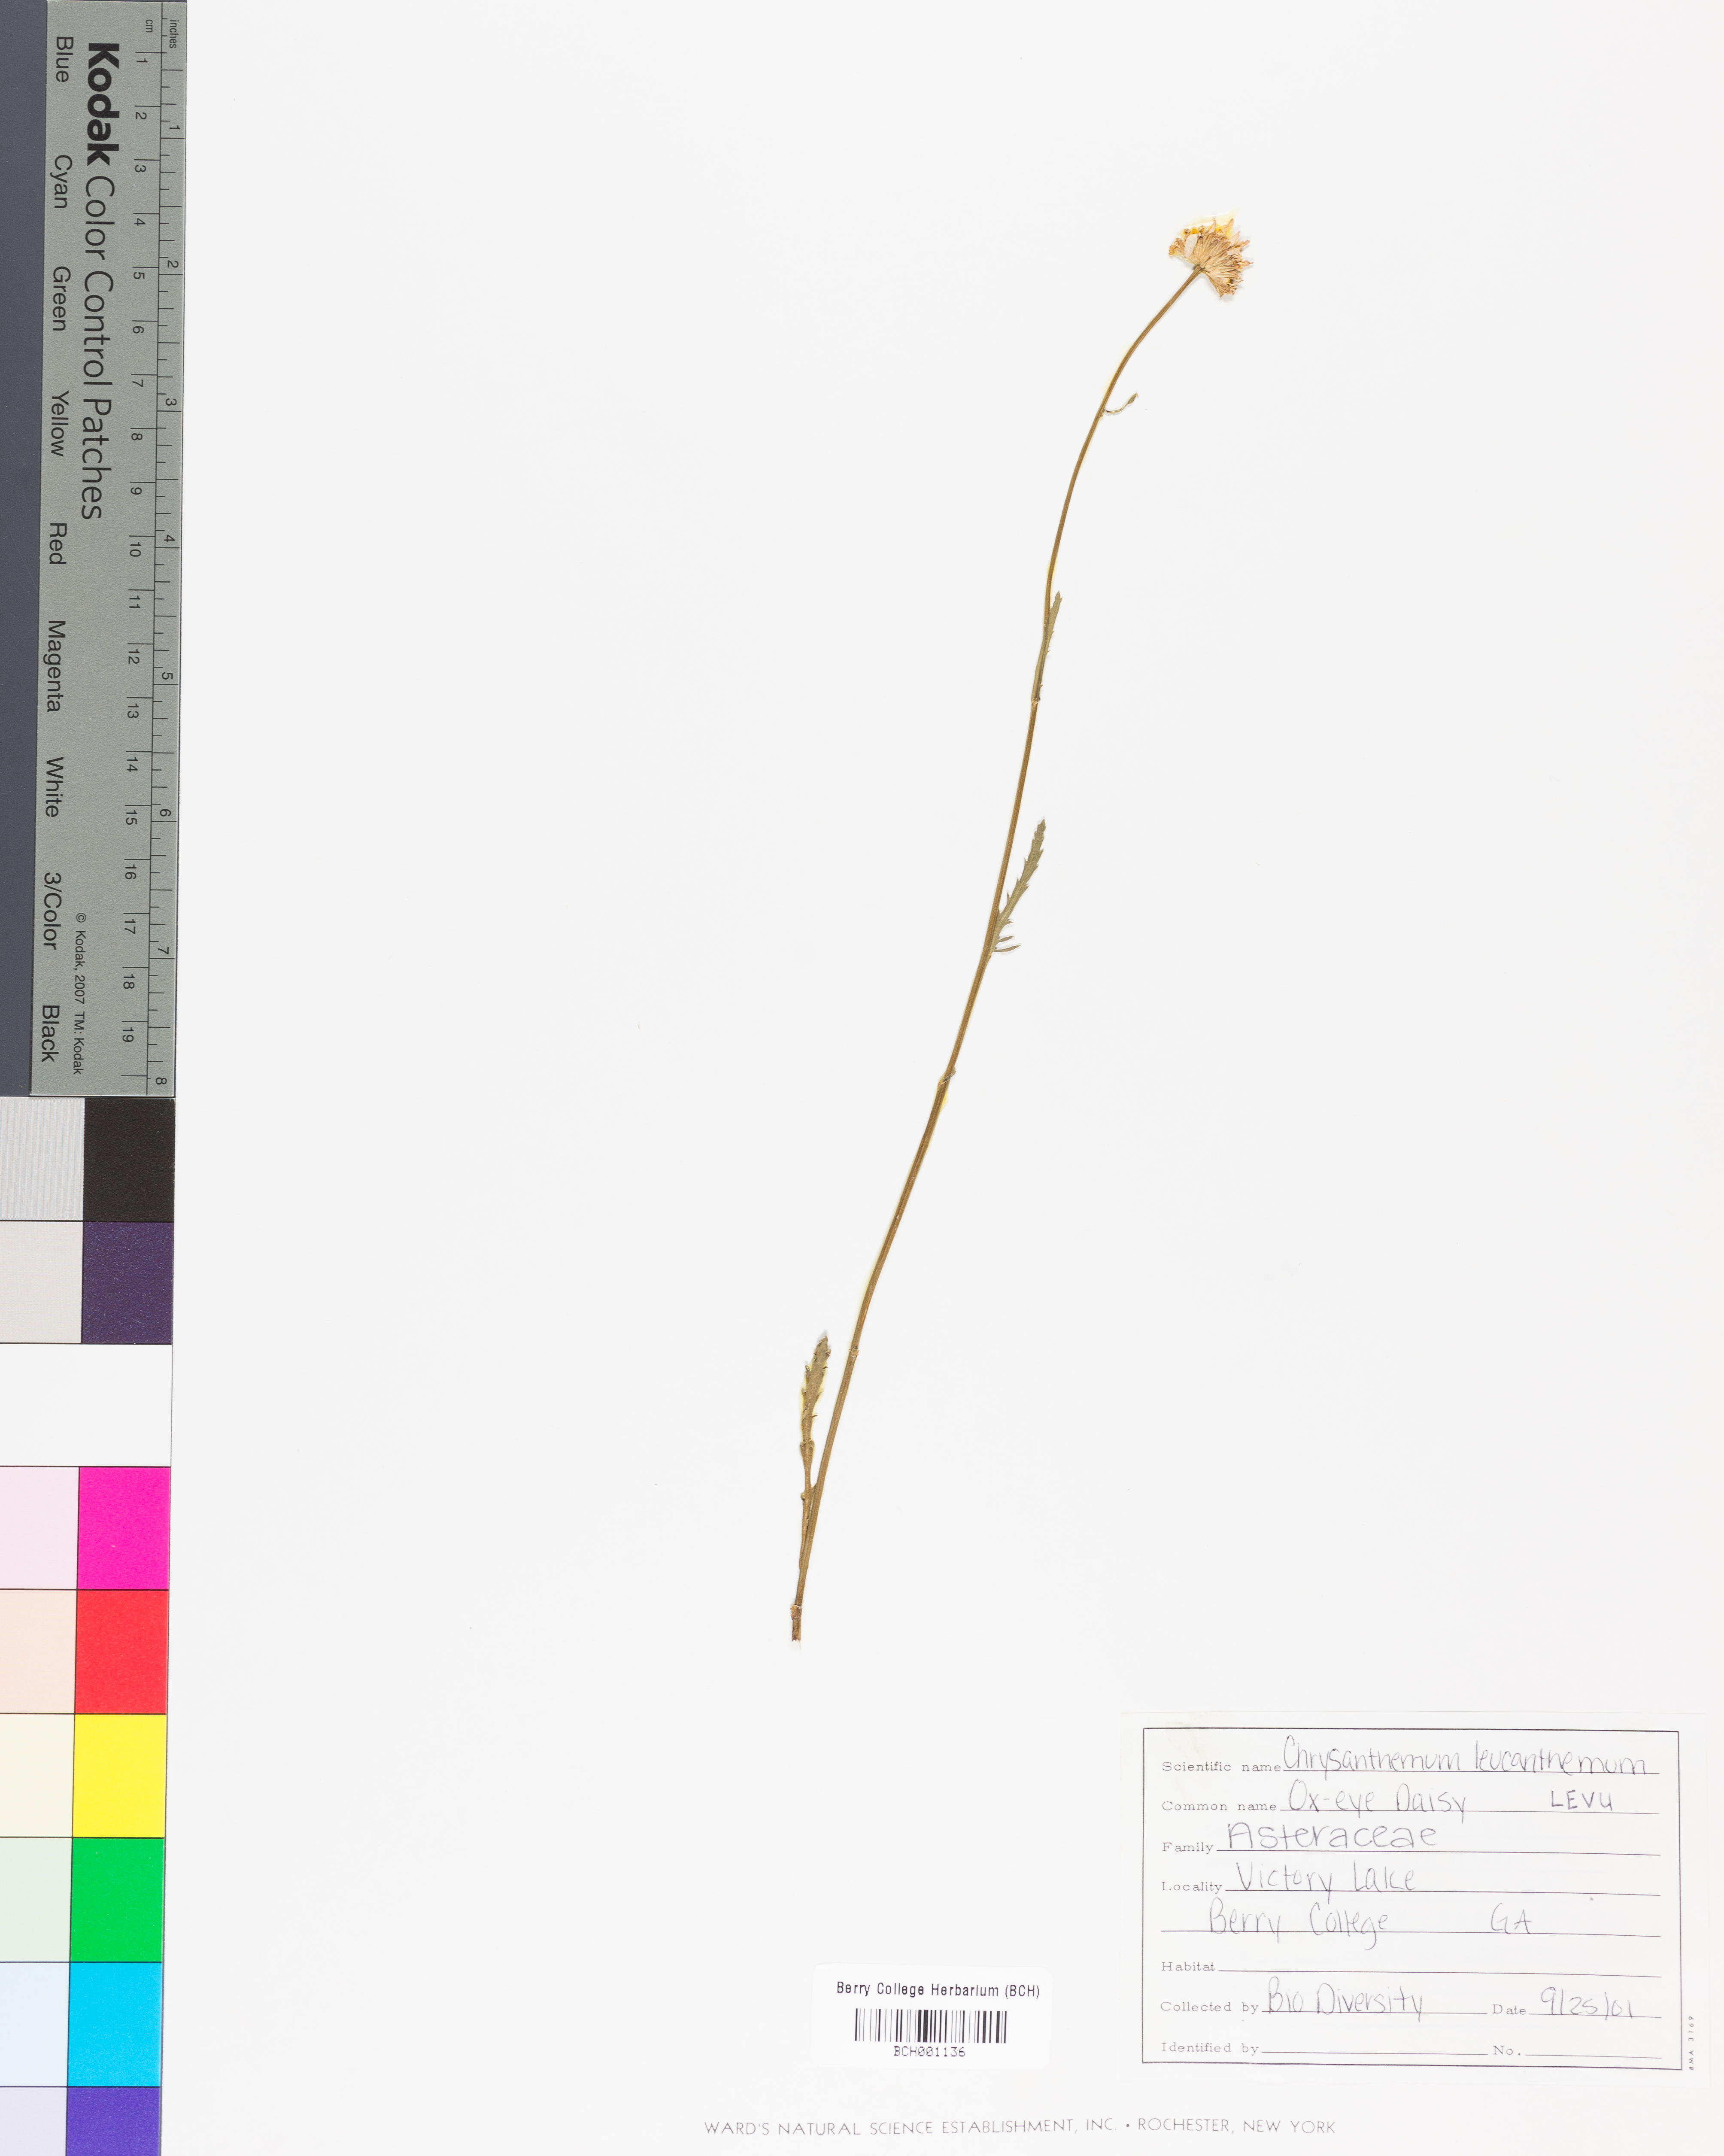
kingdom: Plantae
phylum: Tracheophyta
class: Magnoliopsida
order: Asterales
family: Asteraceae
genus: Leucanthemum
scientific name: Leucanthemum vulgare
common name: Oxeye daisy
